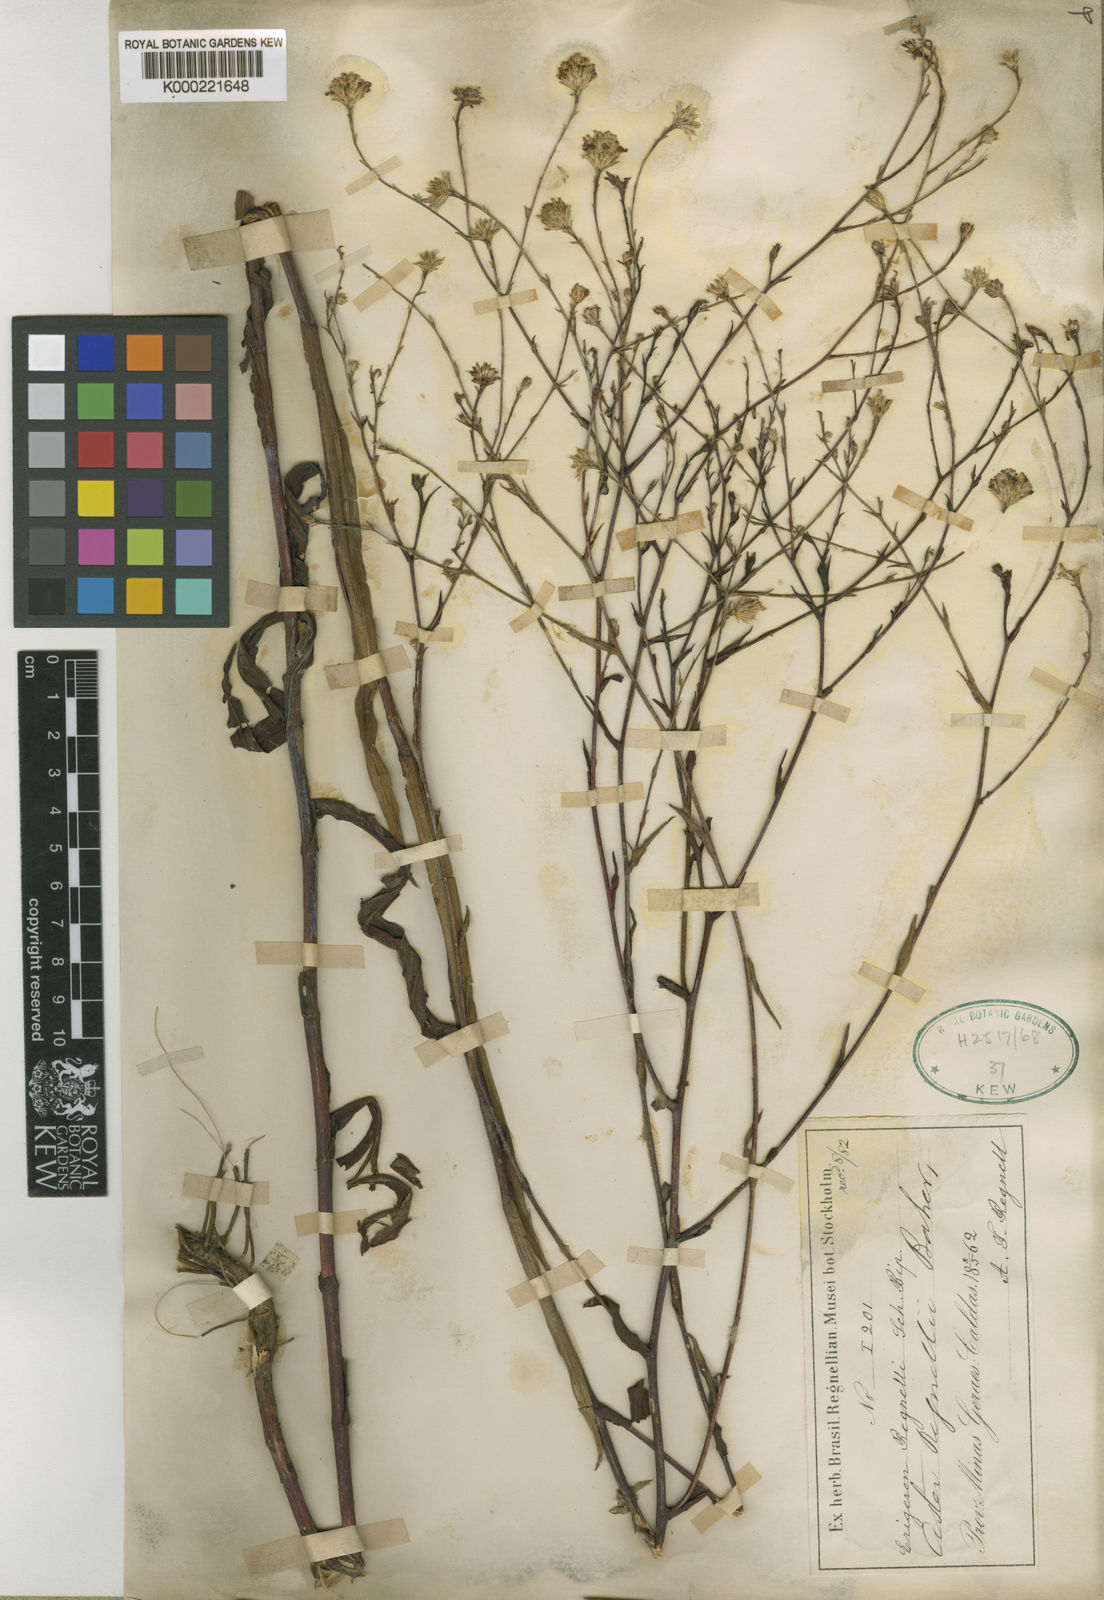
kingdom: Plantae
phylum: Tracheophyta
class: Magnoliopsida
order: Asterales
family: Asteraceae
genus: Symphyotrichum
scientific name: Symphyotrichum regnellii
